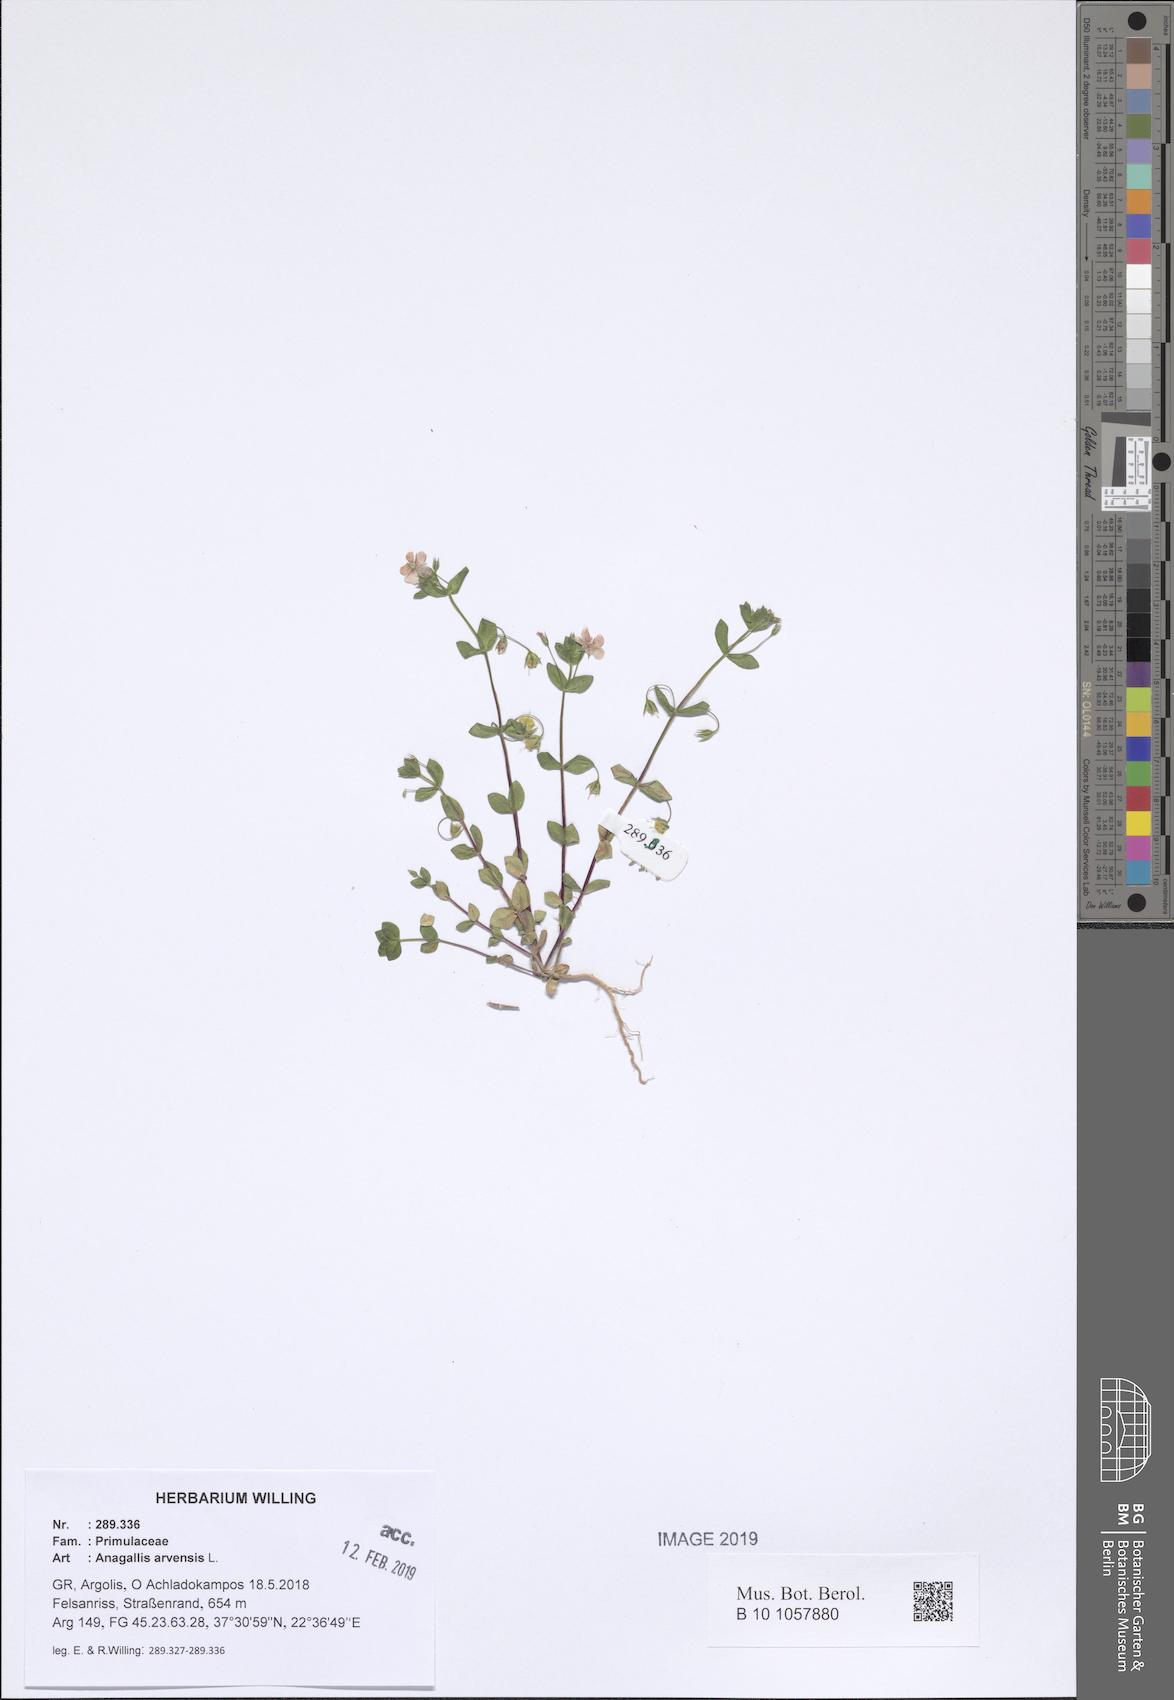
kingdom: Plantae
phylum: Tracheophyta
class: Magnoliopsida
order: Ericales
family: Primulaceae
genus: Lysimachia
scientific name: Lysimachia arvensis
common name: Scarlet pimpernel
